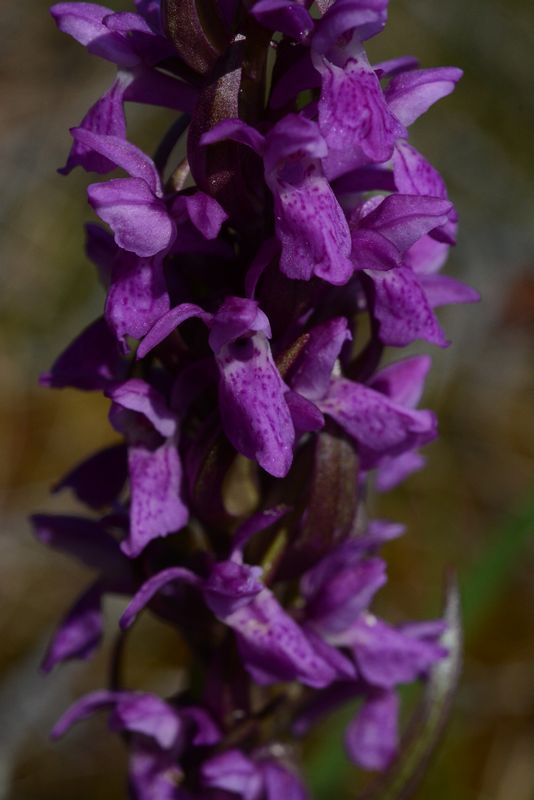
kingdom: Plantae
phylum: Tracheophyta
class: Liliopsida
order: Asparagales
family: Orchidaceae
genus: Dactylorhiza
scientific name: Dactylorhiza incarnata
